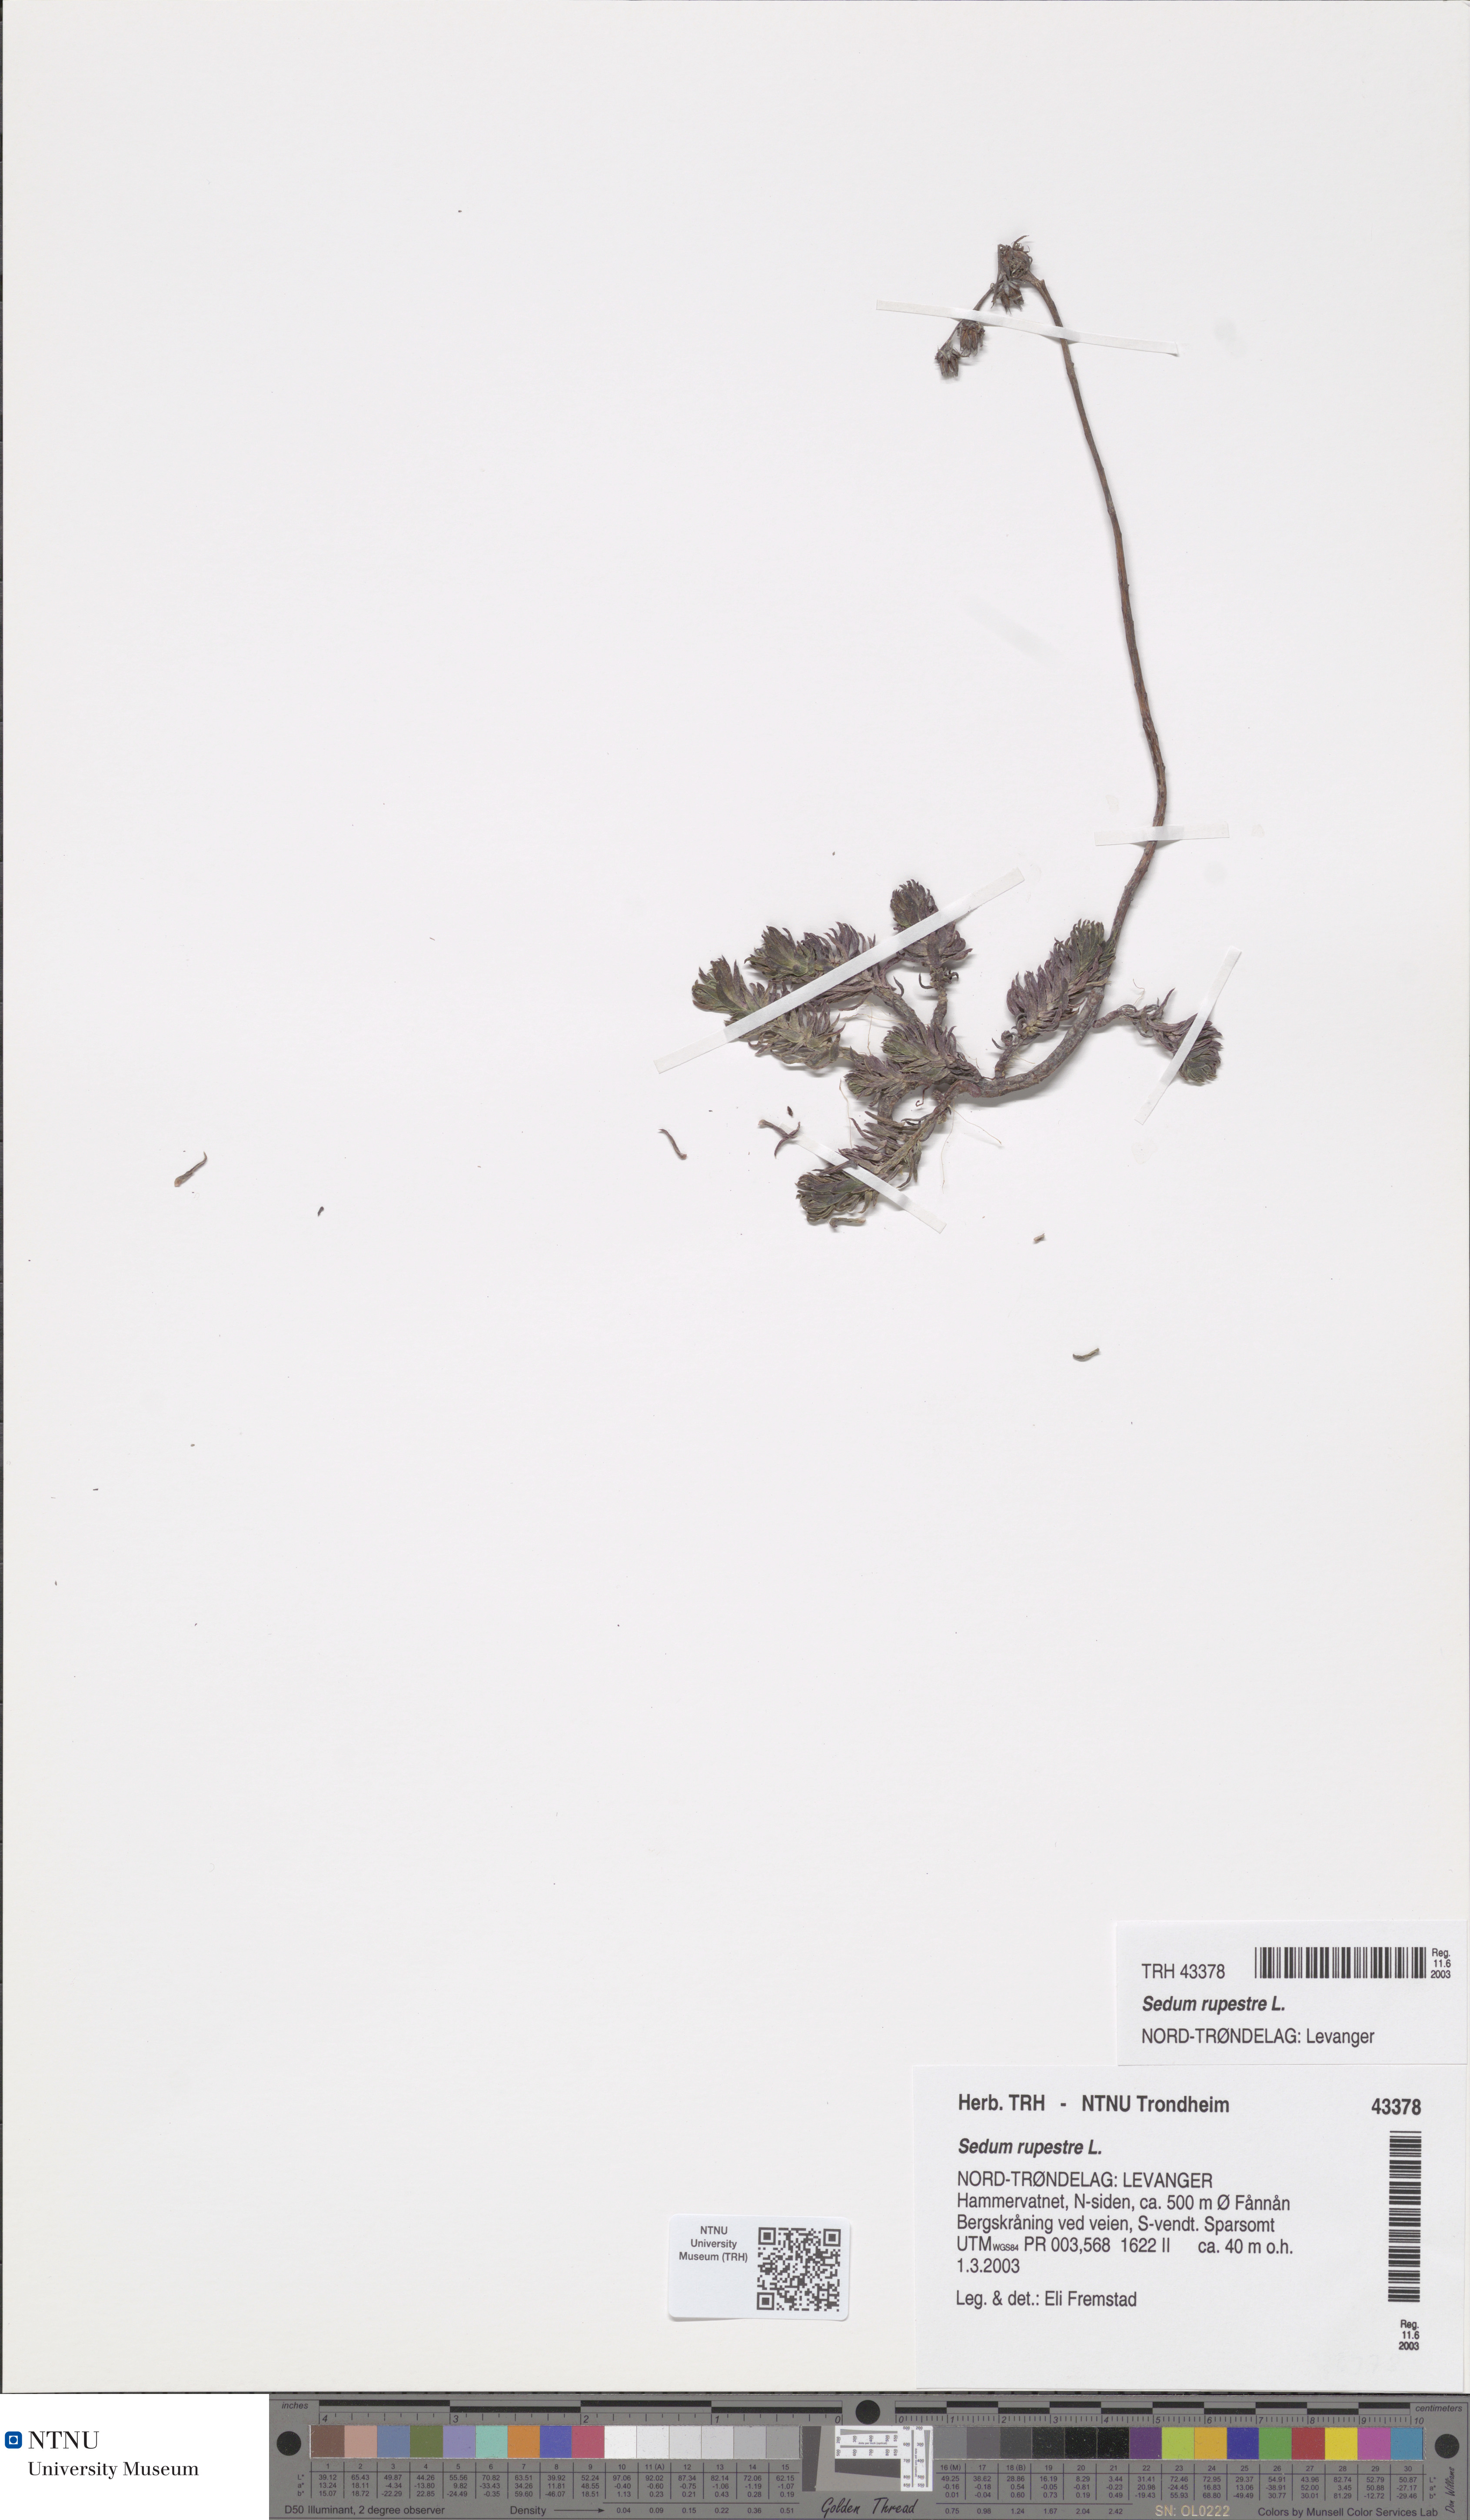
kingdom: Plantae
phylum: Tracheophyta
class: Magnoliopsida
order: Saxifragales
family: Crassulaceae
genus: Petrosedum
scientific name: Petrosedum rupestre
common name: Jenny's stonecrop
